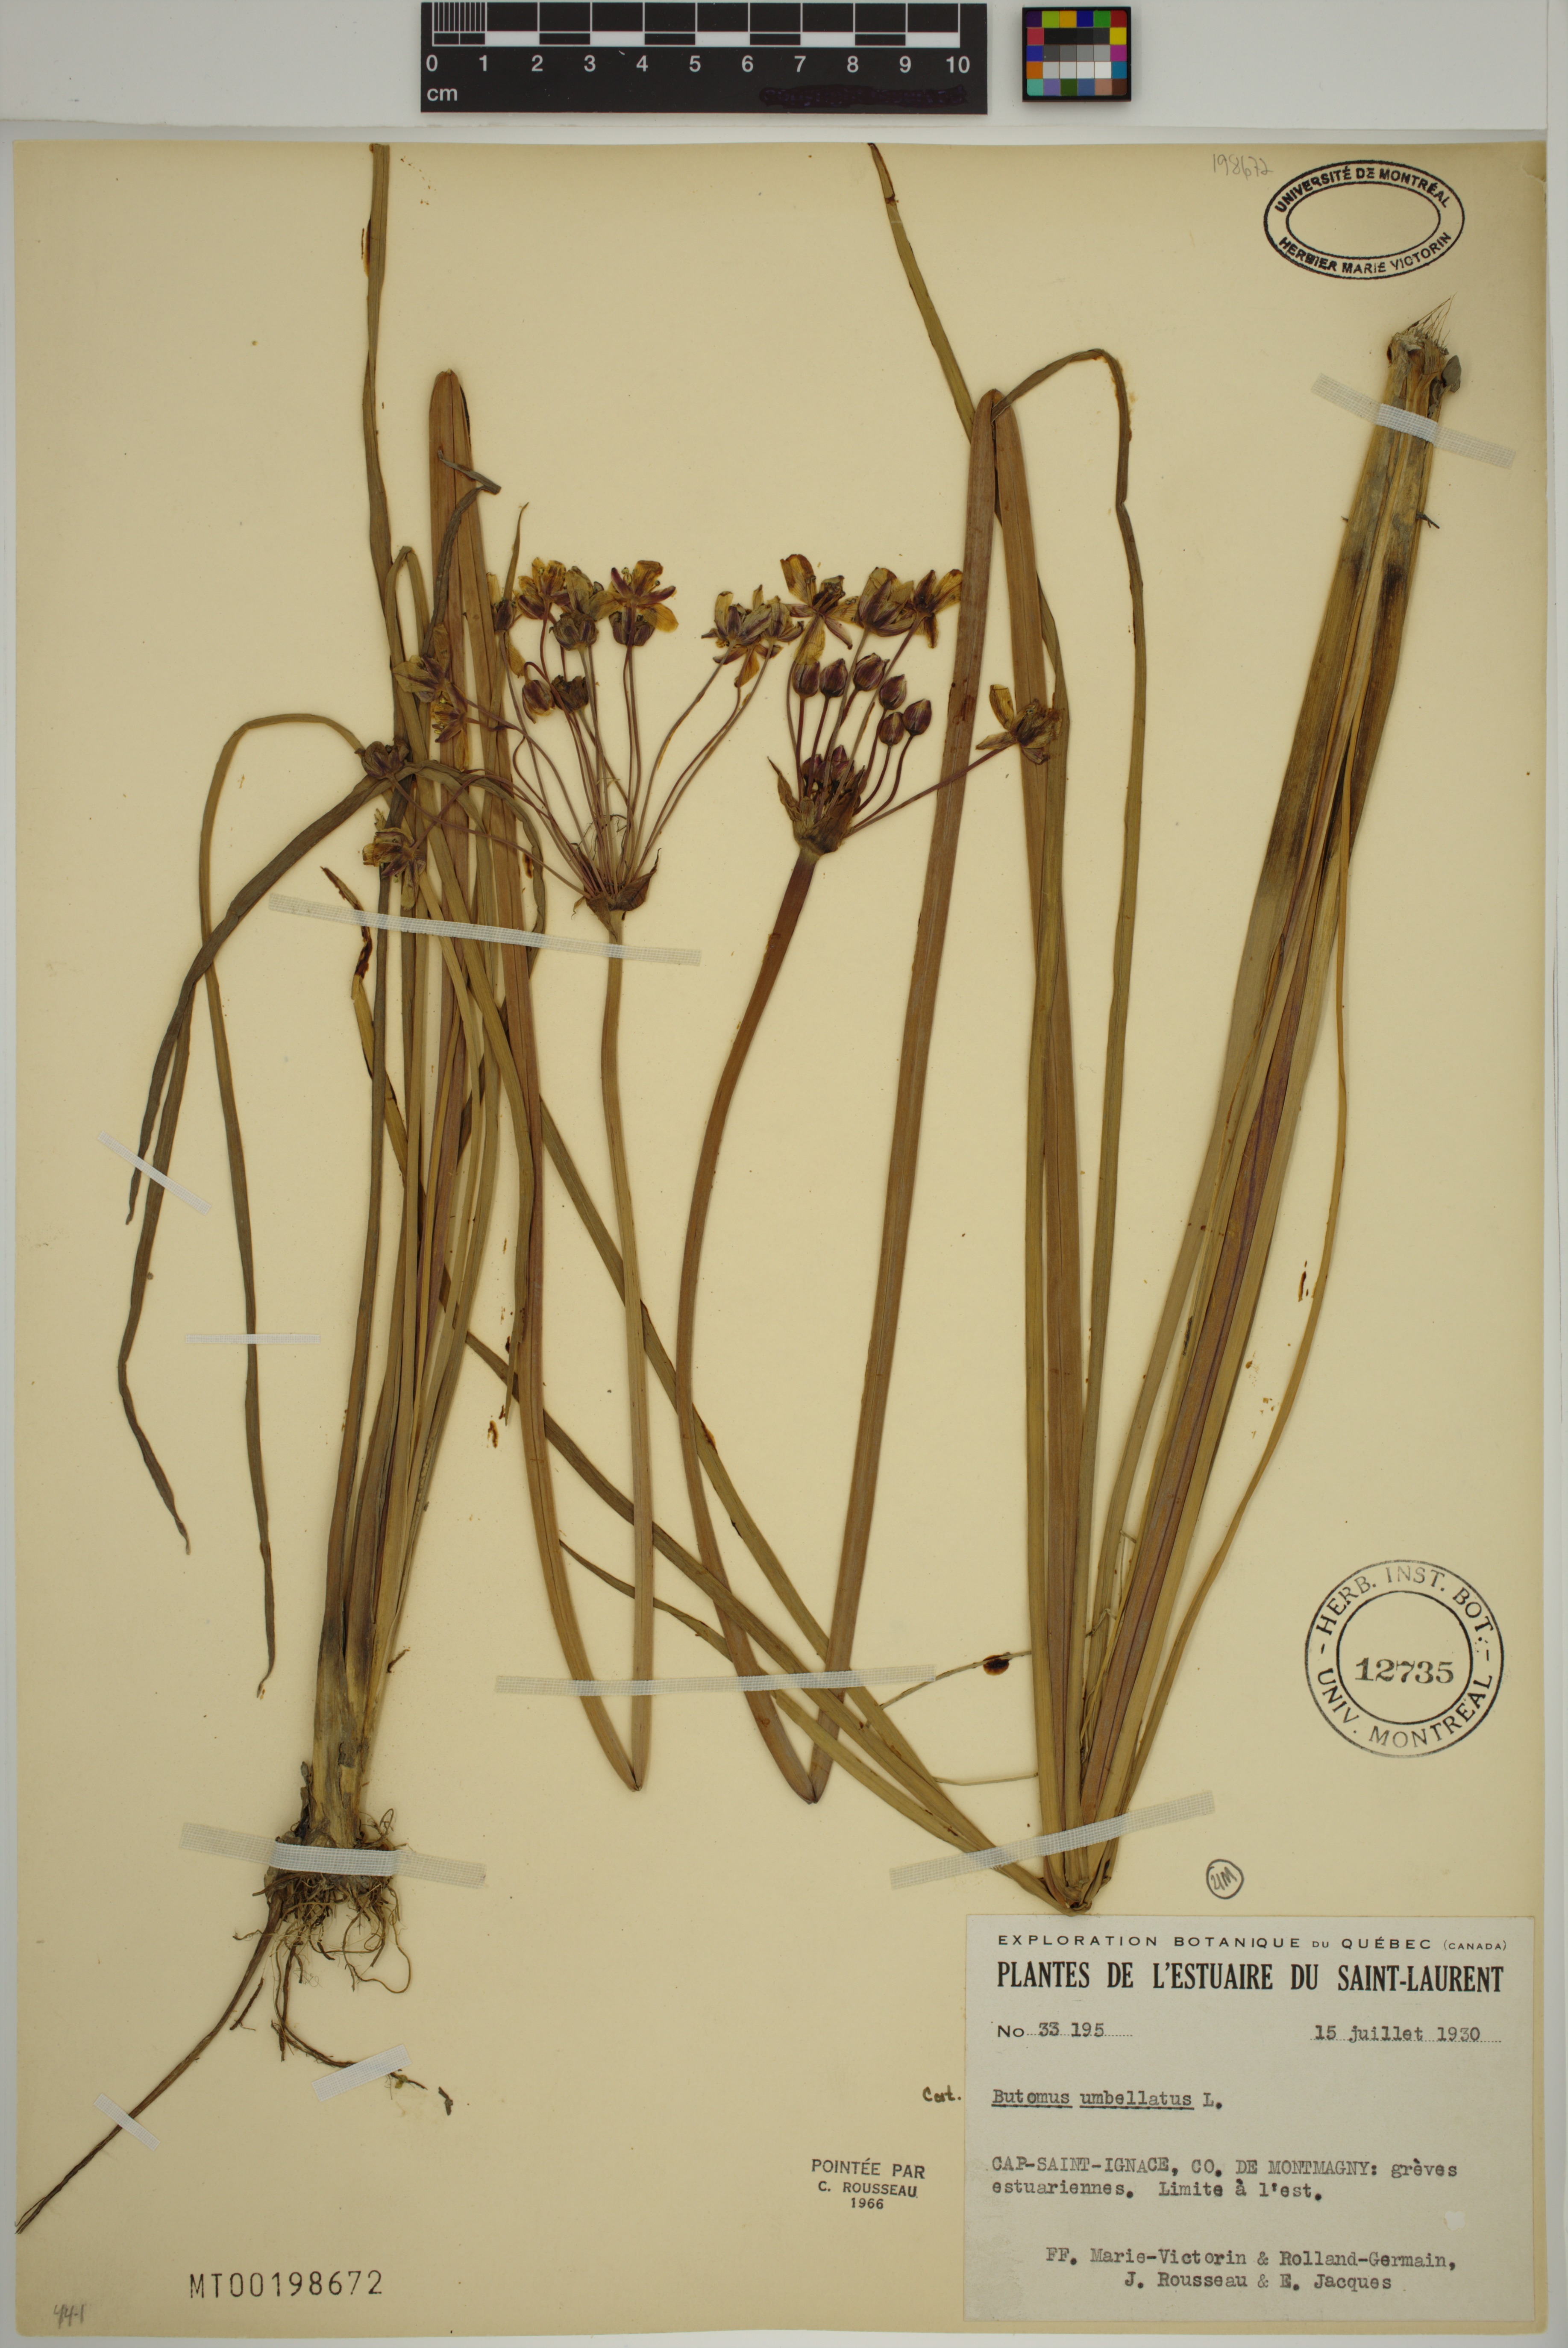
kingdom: Plantae
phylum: Tracheophyta
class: Liliopsida
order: Alismatales
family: Butomaceae
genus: Butomus
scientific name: Butomus umbellatus
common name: Flowering-rush
